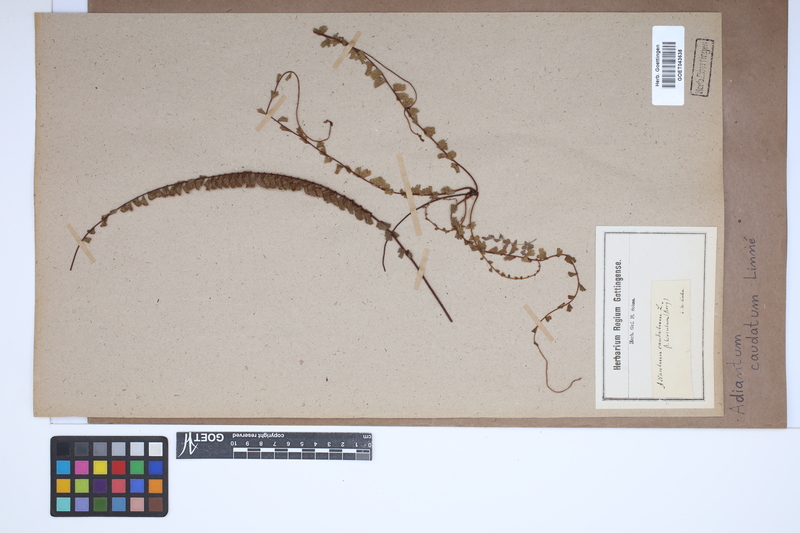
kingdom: Plantae
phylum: Tracheophyta
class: Polypodiopsida
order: Polypodiales
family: Pteridaceae
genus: Adiantum
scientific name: Adiantum caudatum
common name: Tailed maidenhair
